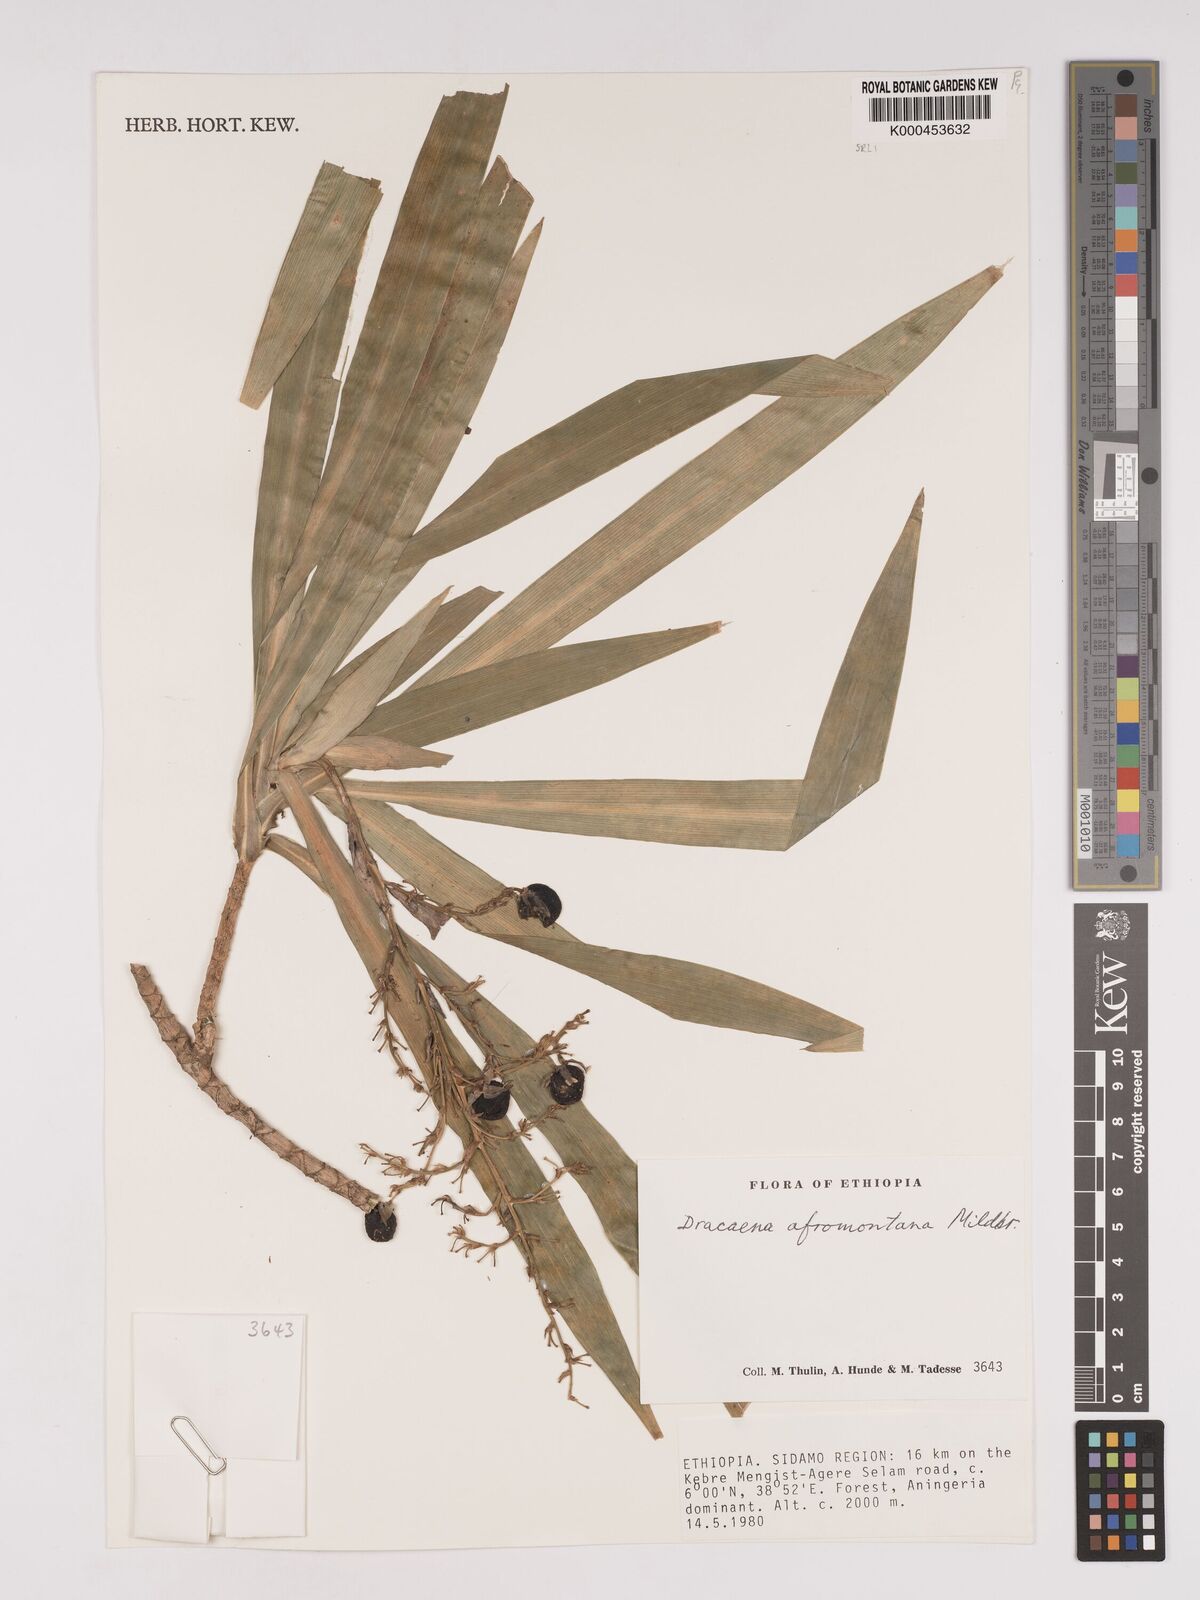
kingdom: Plantae
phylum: Tracheophyta
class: Liliopsida
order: Asparagales
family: Asparagaceae
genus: Dracaena
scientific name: Dracaena afromontana
